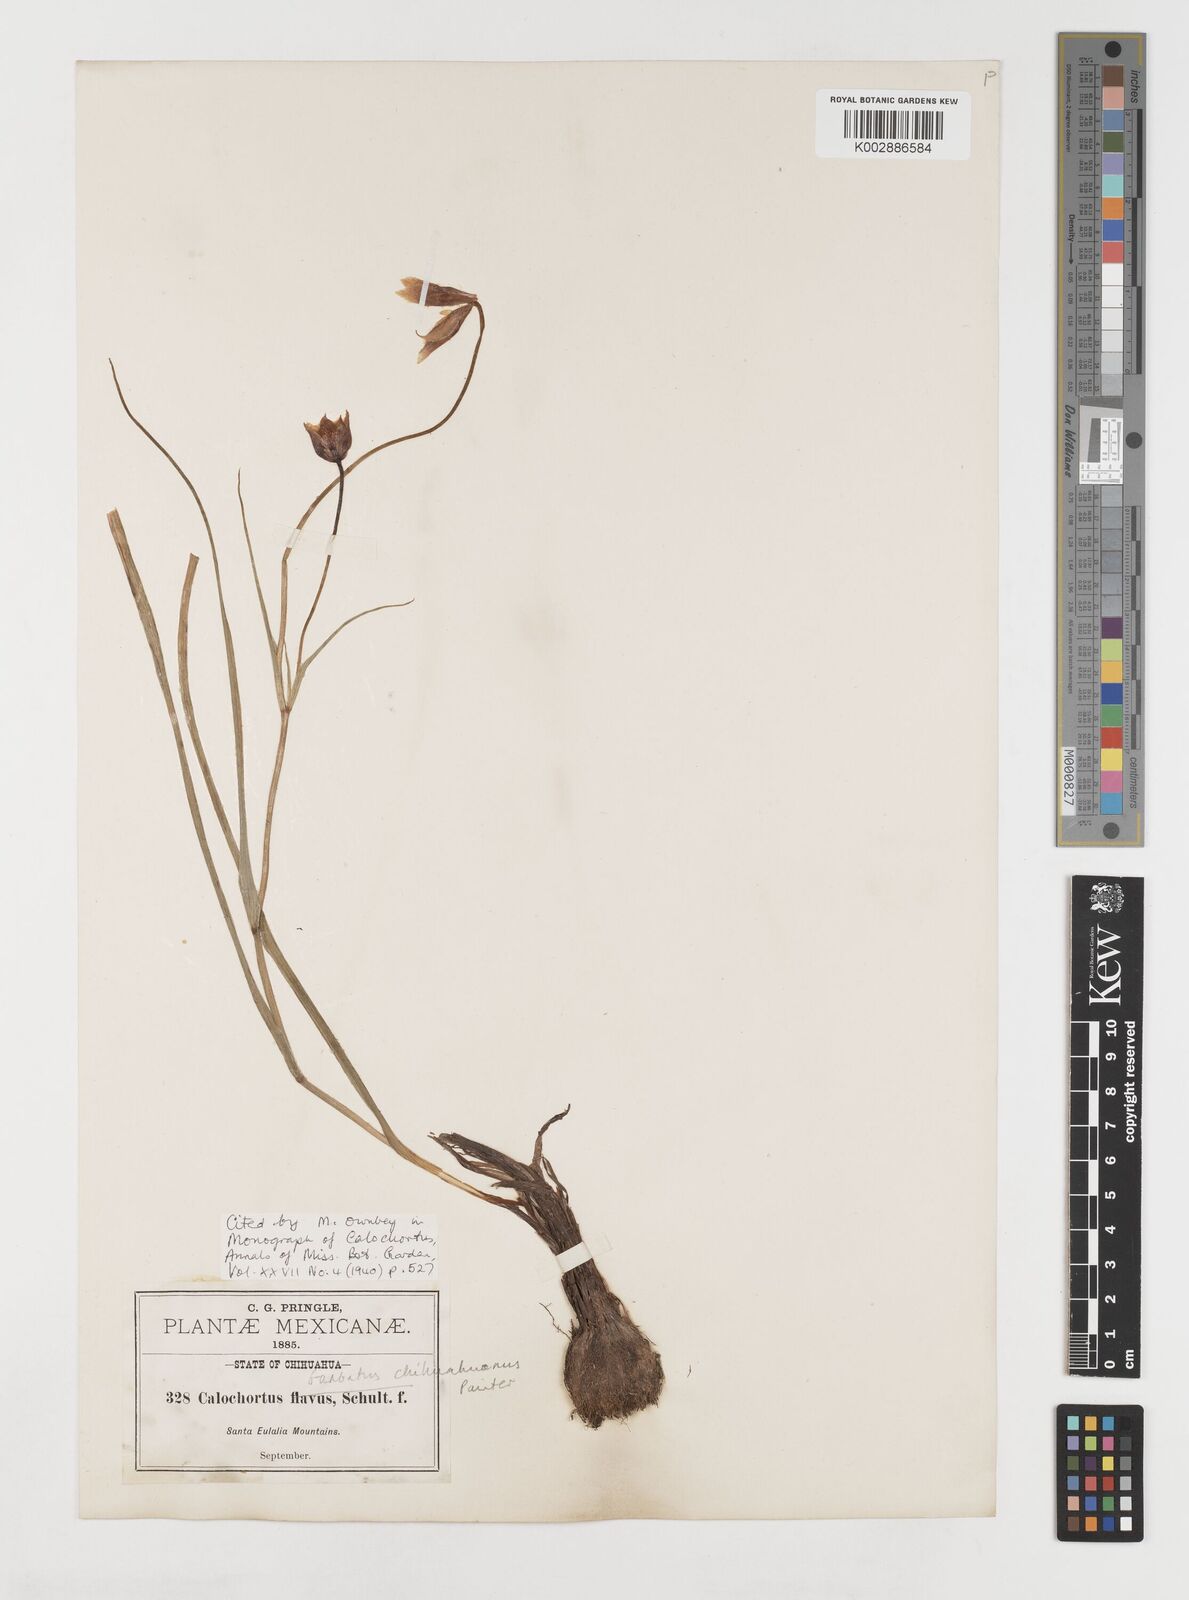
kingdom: Plantae
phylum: Tracheophyta
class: Liliopsida
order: Liliales
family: Liliaceae
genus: Calochortus
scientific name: Calochortus barbatus
